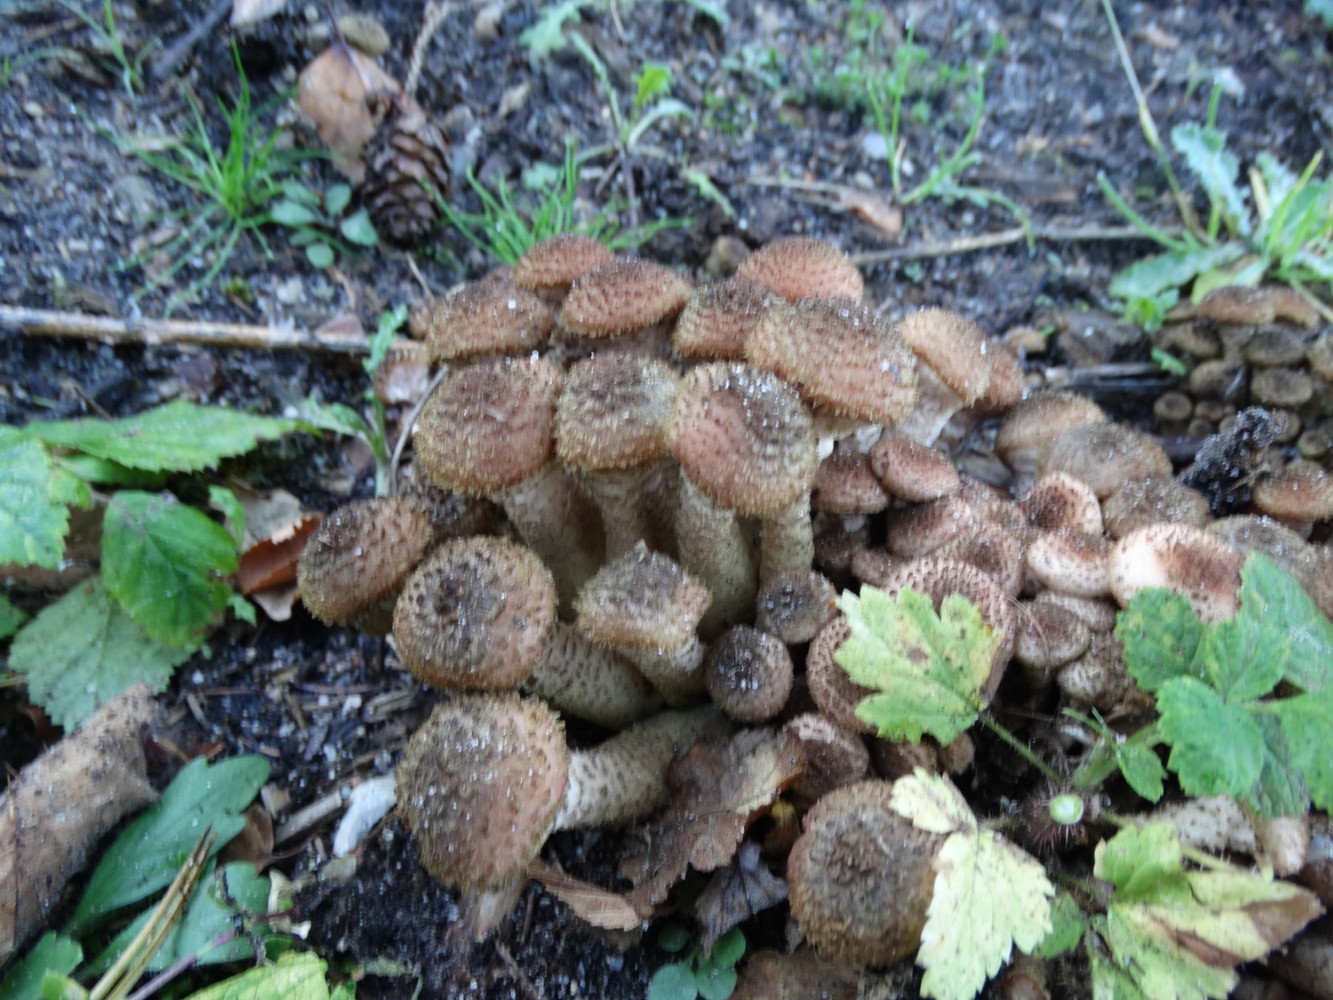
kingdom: Fungi
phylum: Basidiomycota
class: Agaricomycetes
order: Agaricales
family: Physalacriaceae
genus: Armillaria
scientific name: Armillaria ostoyae
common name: mørk honningsvamp
